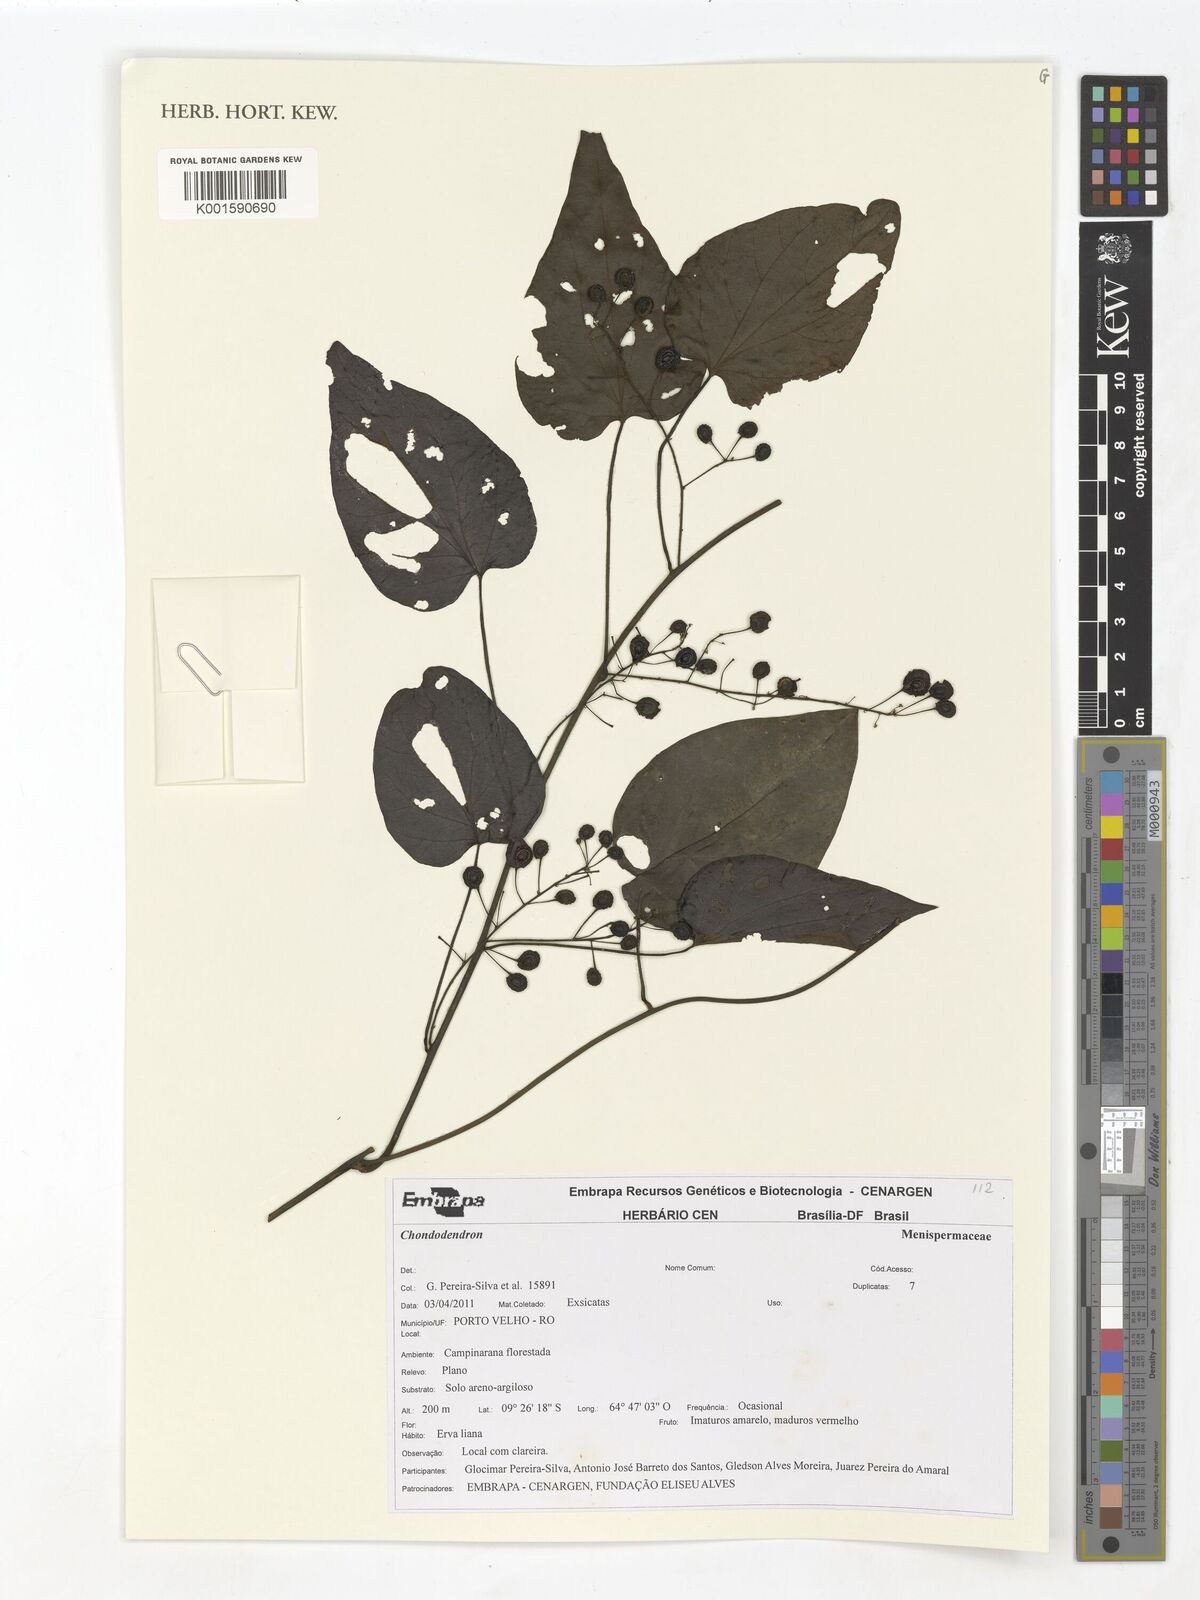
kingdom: Plantae
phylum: Tracheophyta
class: Magnoliopsida
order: Ranunculales
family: Menispermaceae
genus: Chondrodendron
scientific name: Chondrodendron
